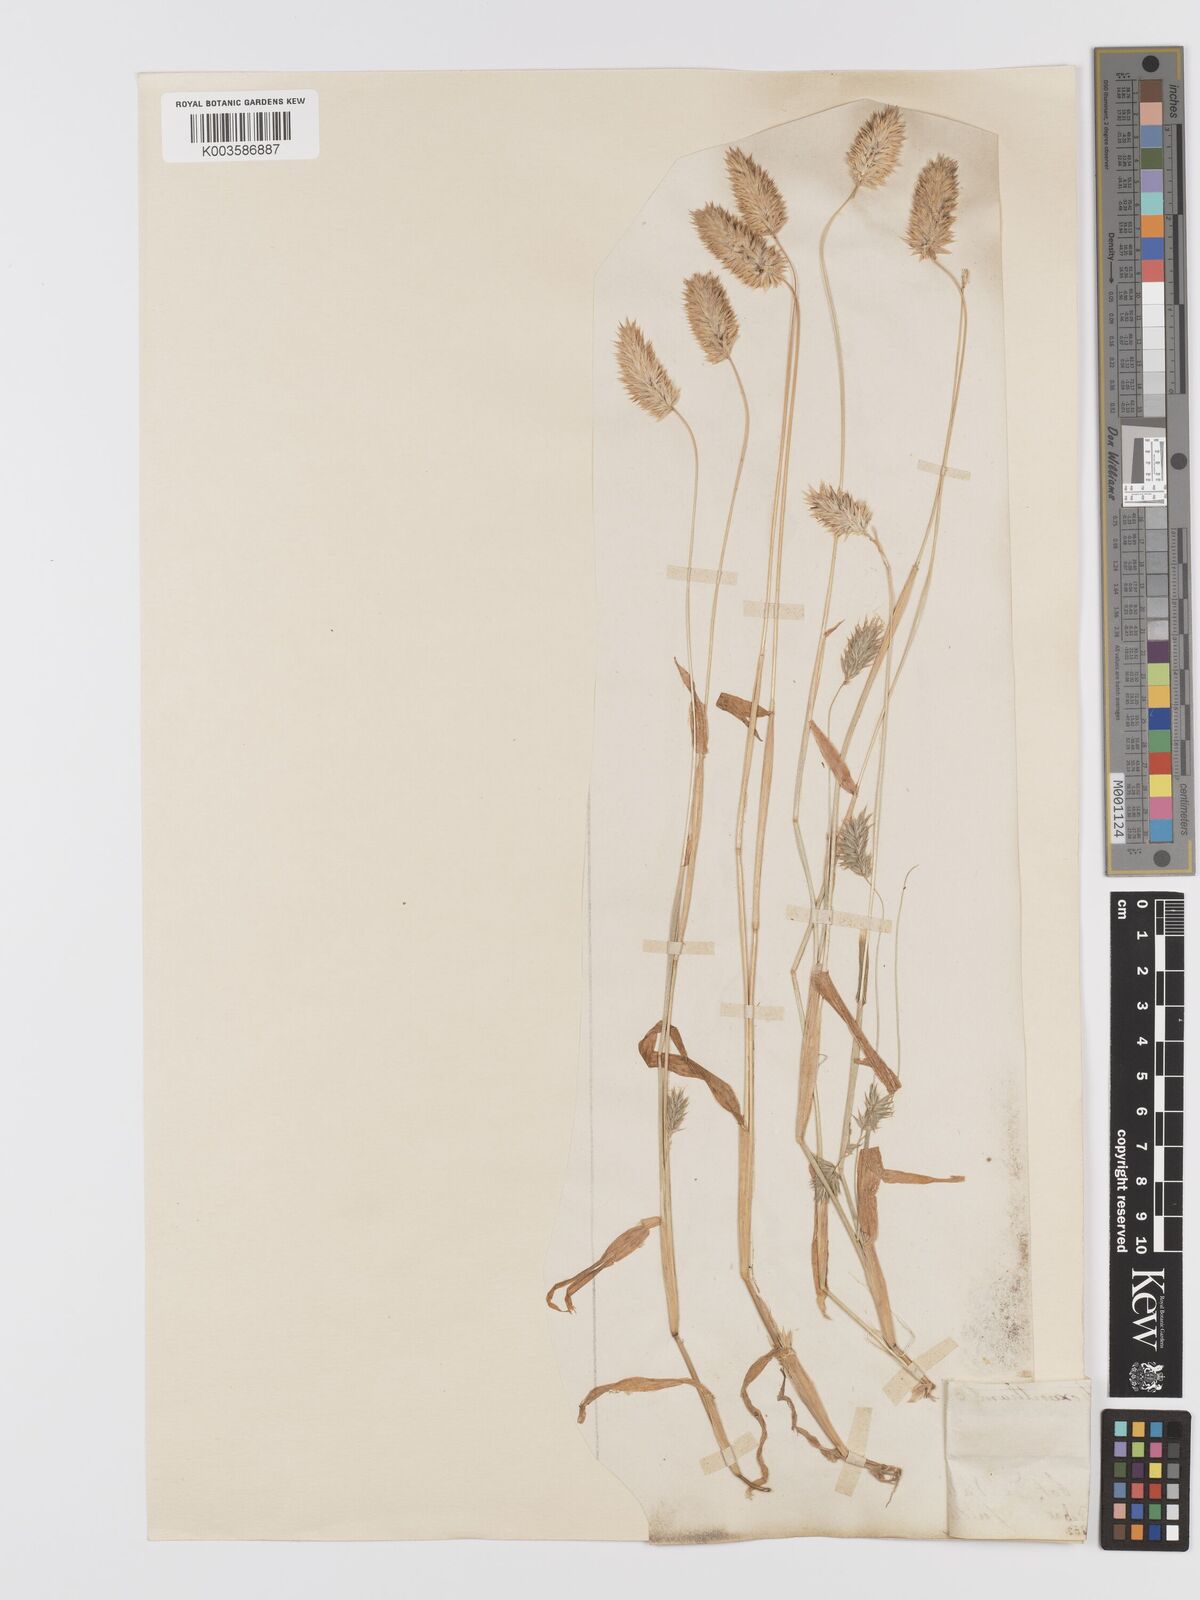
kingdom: Plantae
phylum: Tracheophyta
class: Liliopsida
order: Poales
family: Poaceae
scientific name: Poaceae
